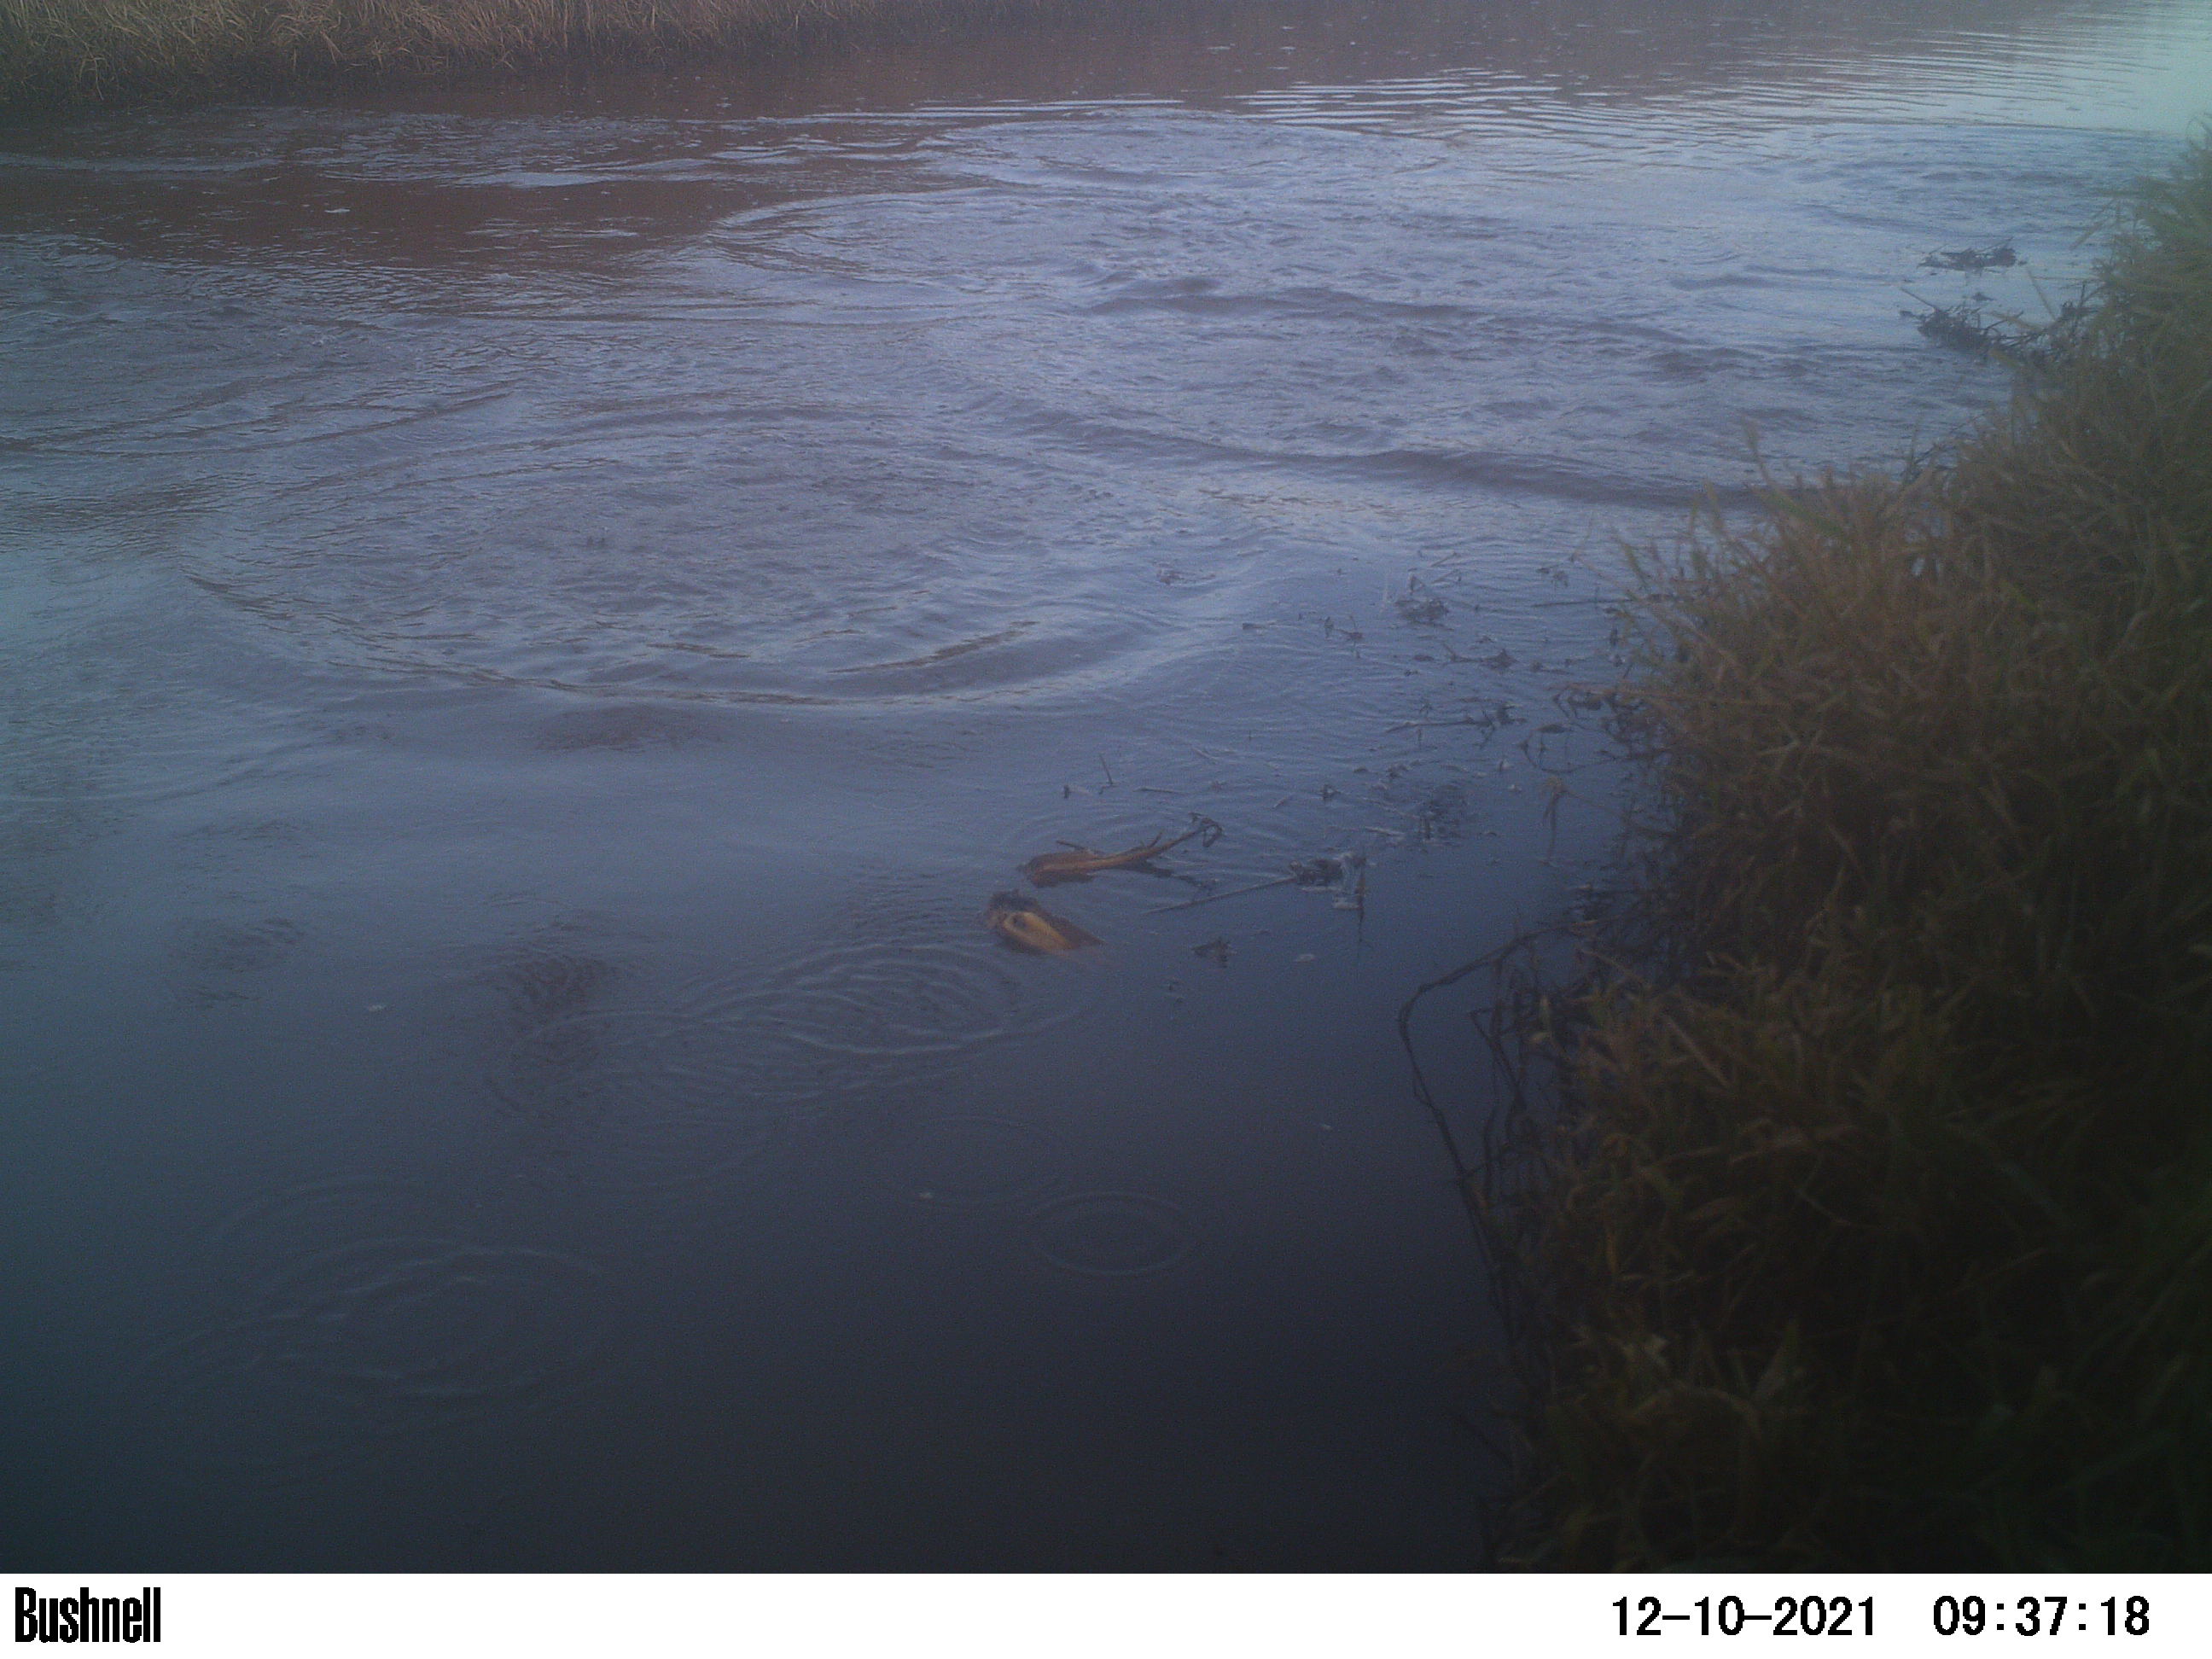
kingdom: Animalia
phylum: Chordata
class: Aves
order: Anseriformes
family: Anatidae
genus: Anas
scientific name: Anas
